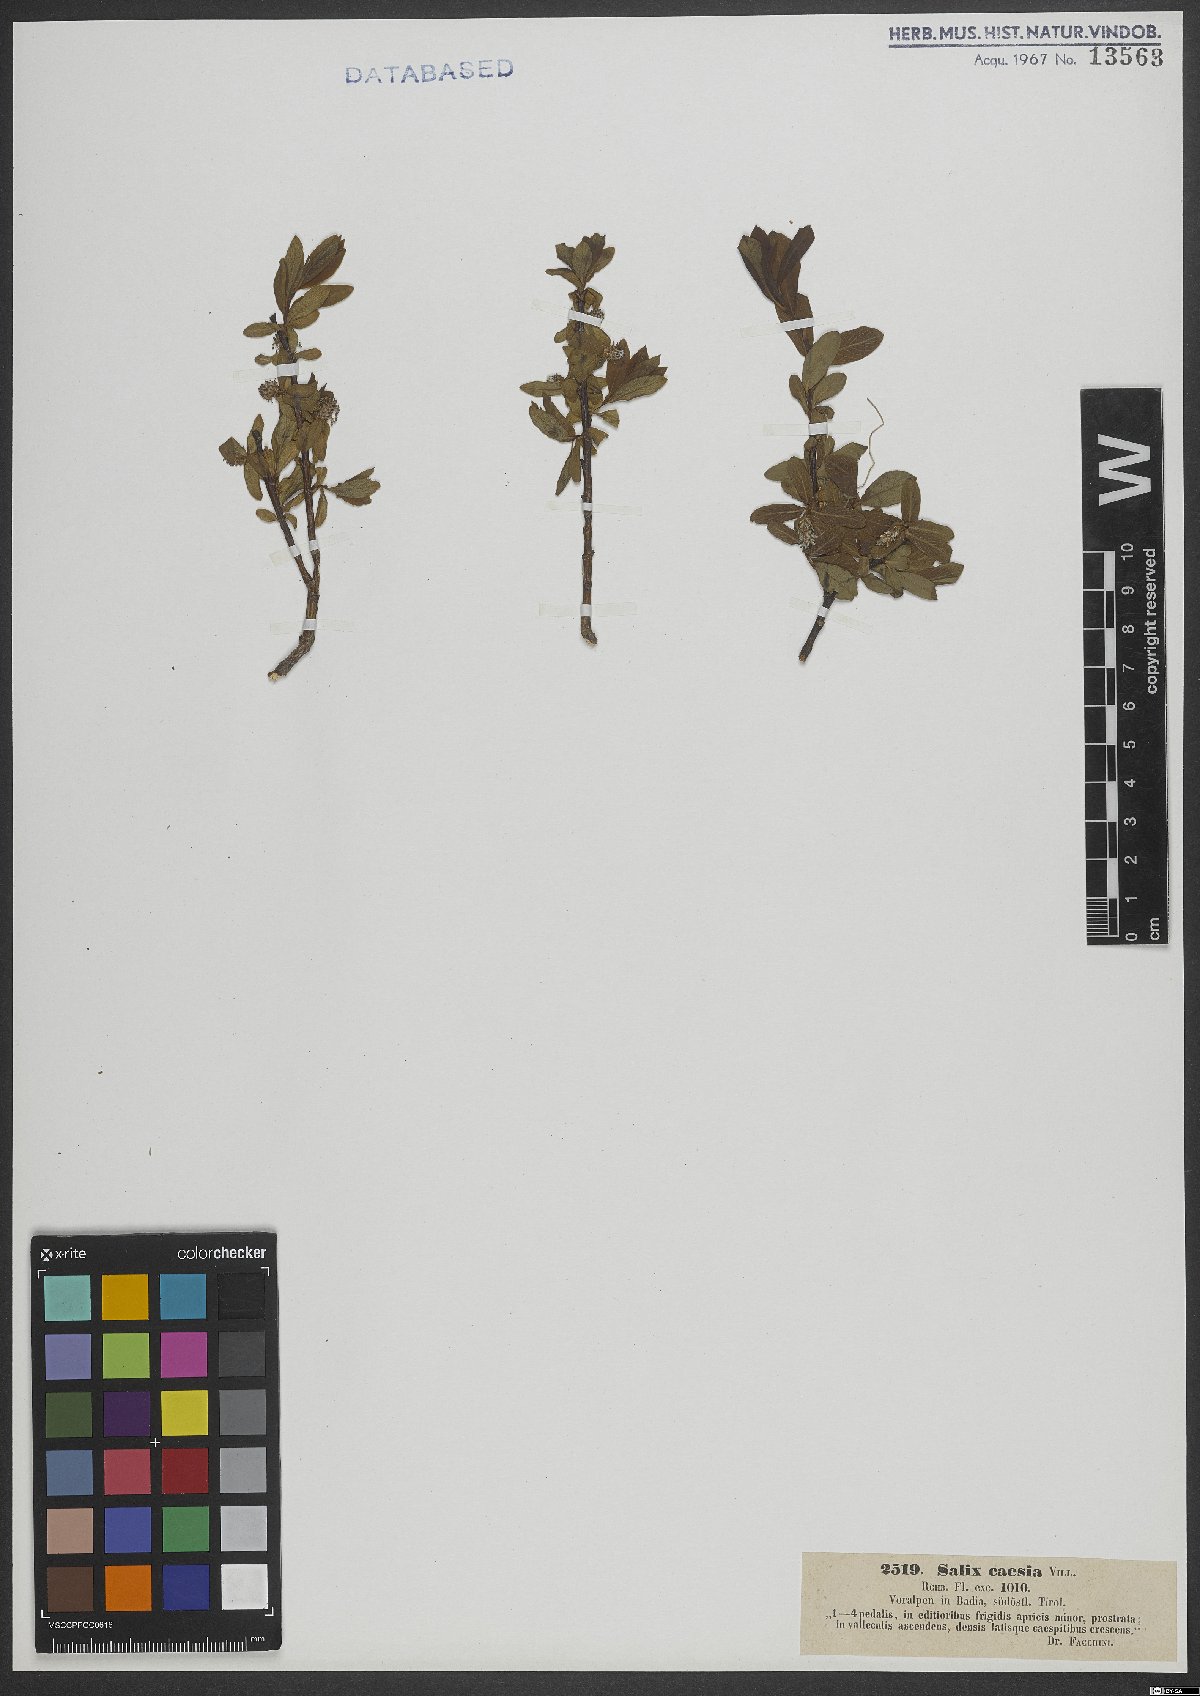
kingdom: Plantae
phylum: Tracheophyta
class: Magnoliopsida
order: Malpighiales
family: Salicaceae
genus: Salix
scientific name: Salix caesia
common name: Blue willow
